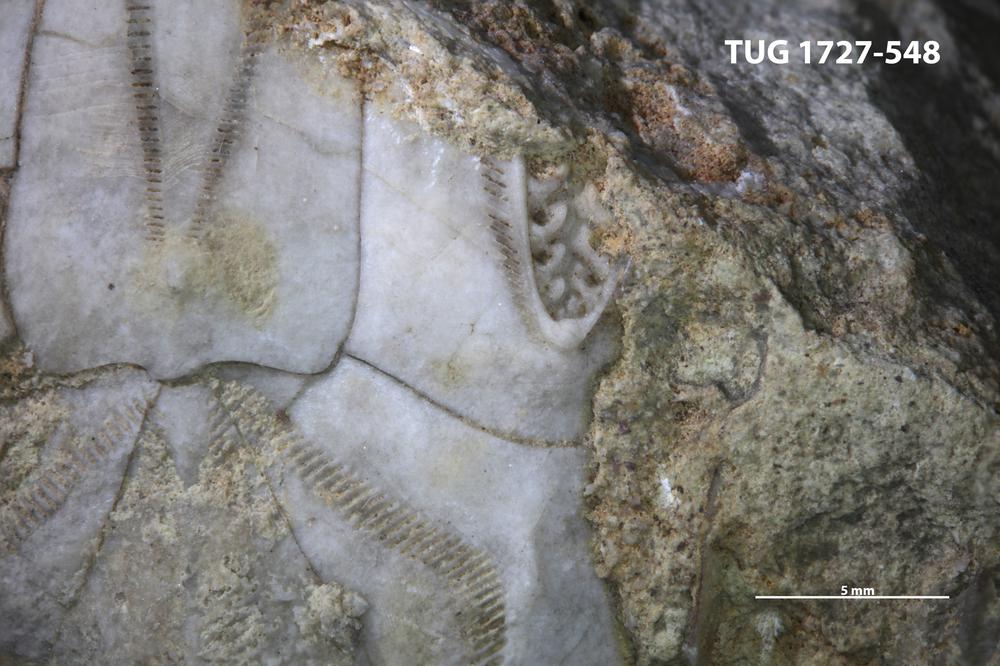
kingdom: Animalia
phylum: Echinodermata
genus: Cystoblastus
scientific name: Cystoblastus
